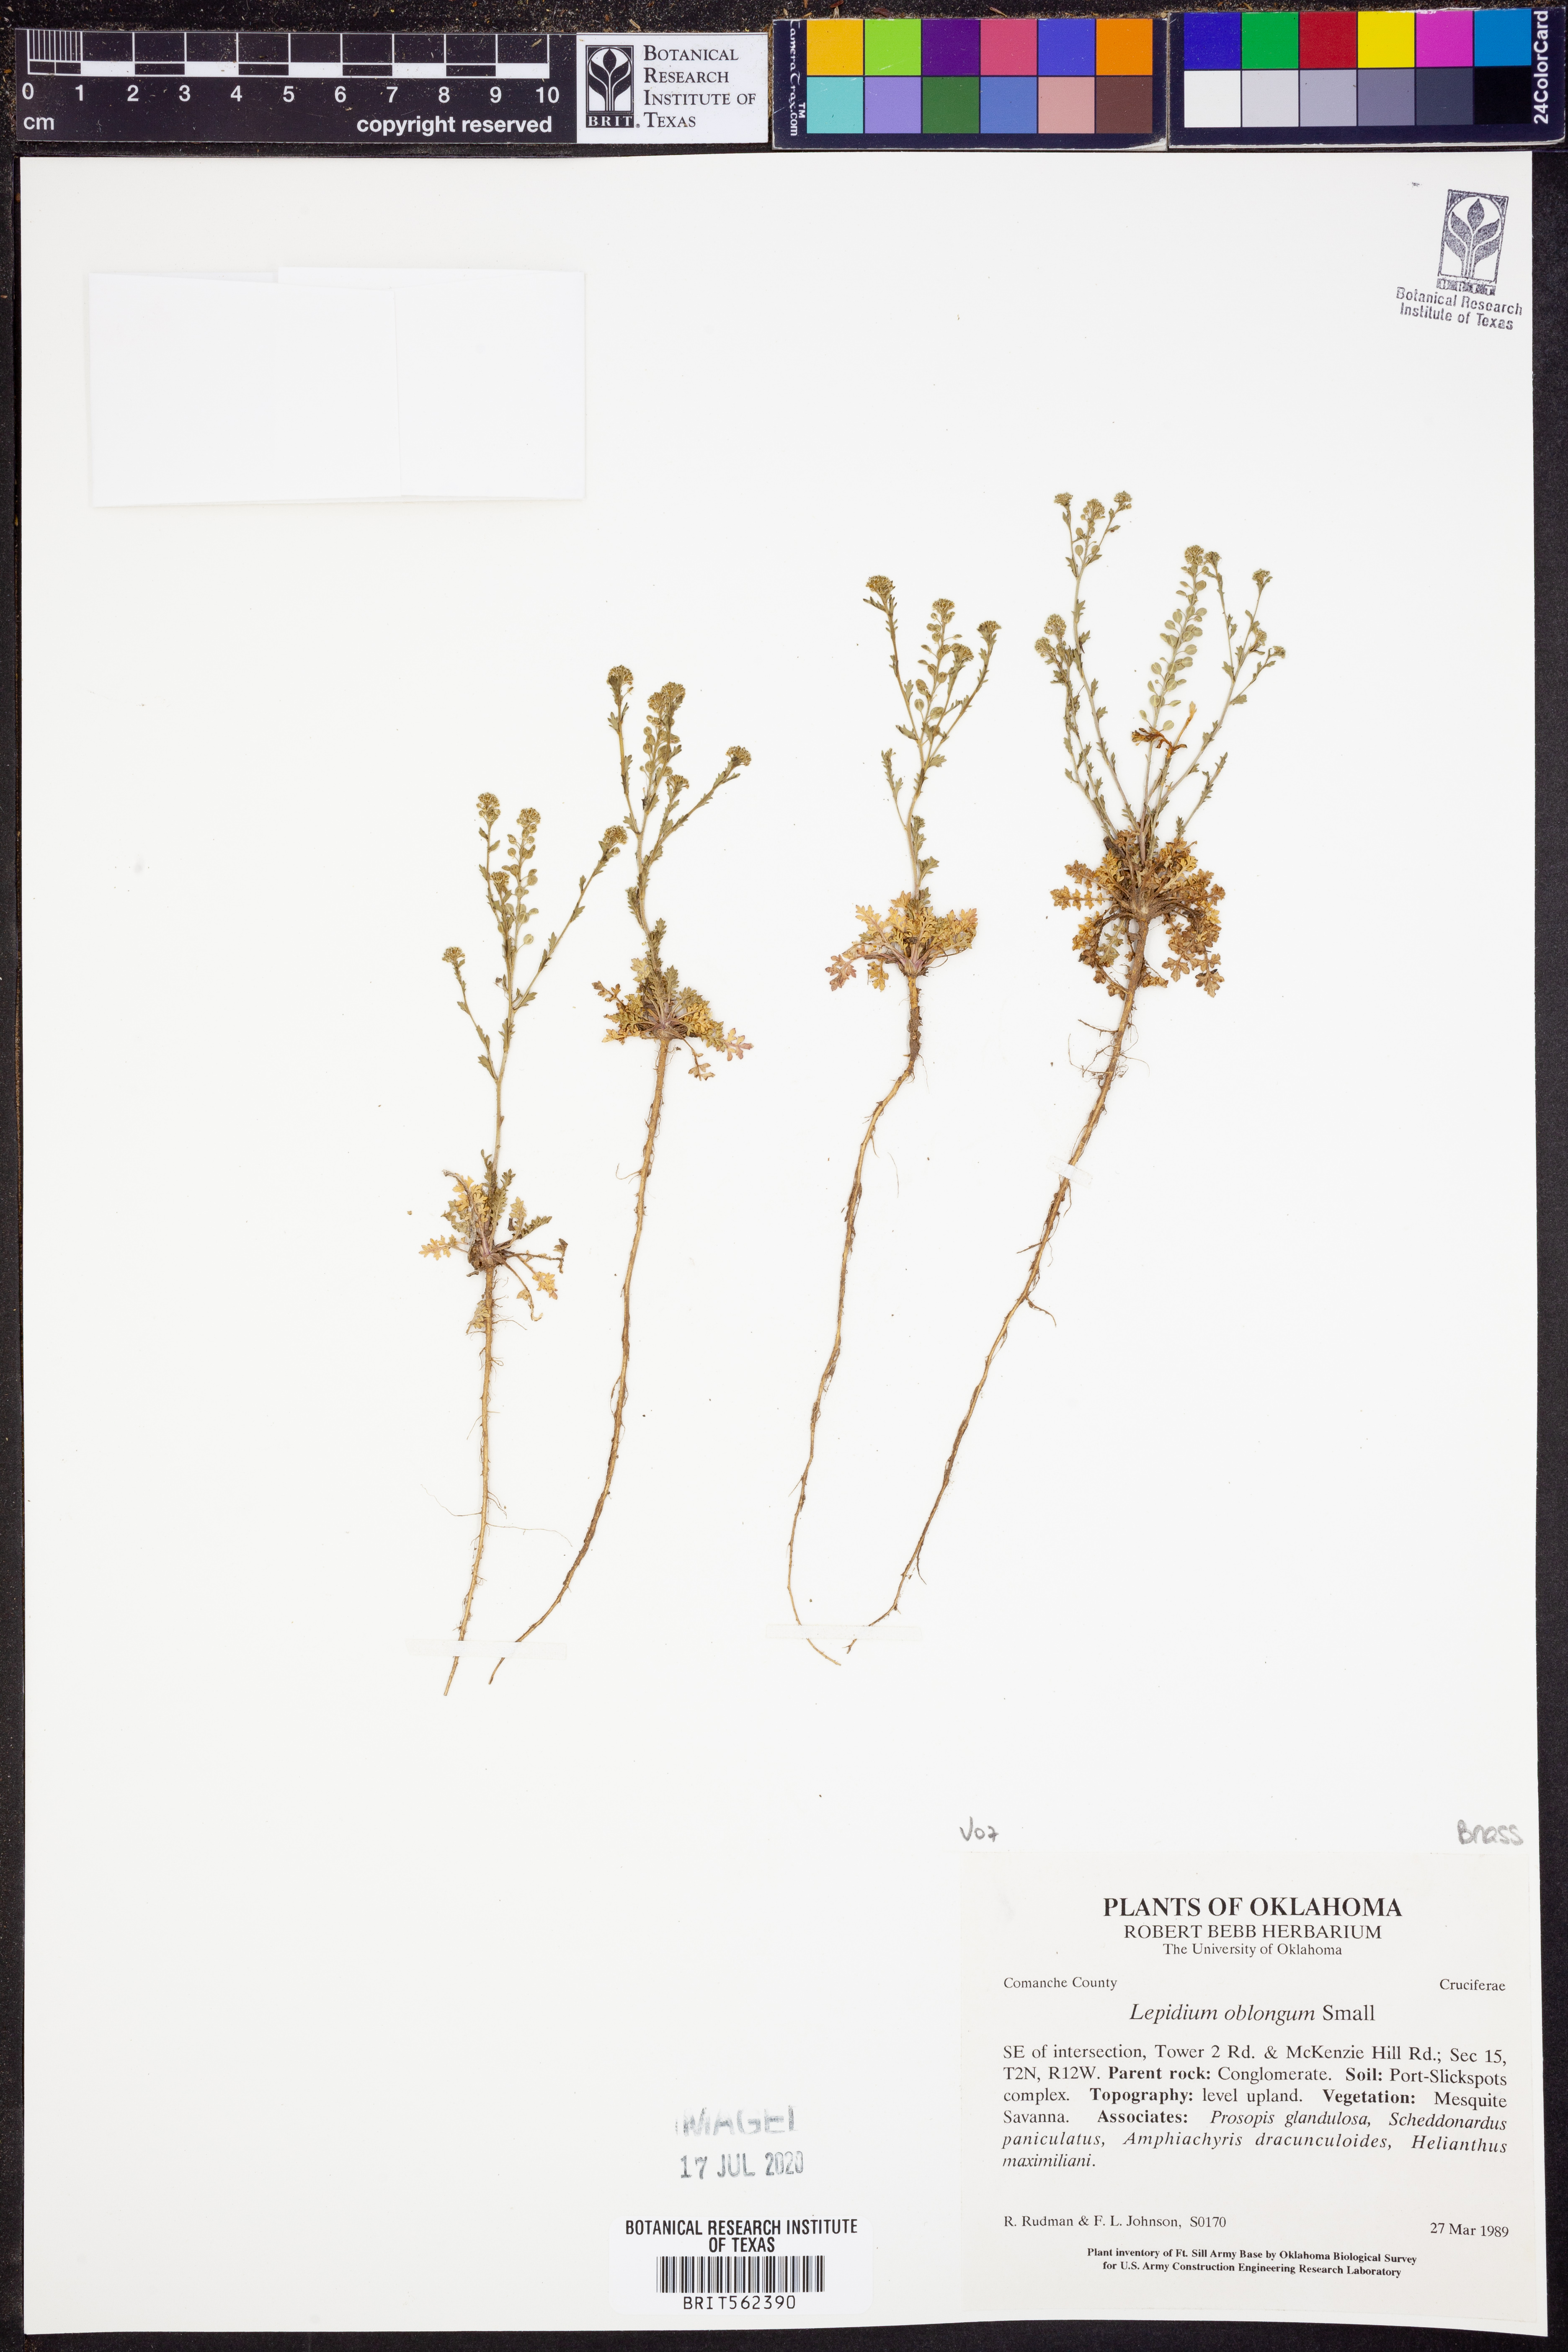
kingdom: Plantae
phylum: Tracheophyta
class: Magnoliopsida
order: Brassicales
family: Brassicaceae
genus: Lepidium
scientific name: Lepidium oblongum
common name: Veiny pepperweed
